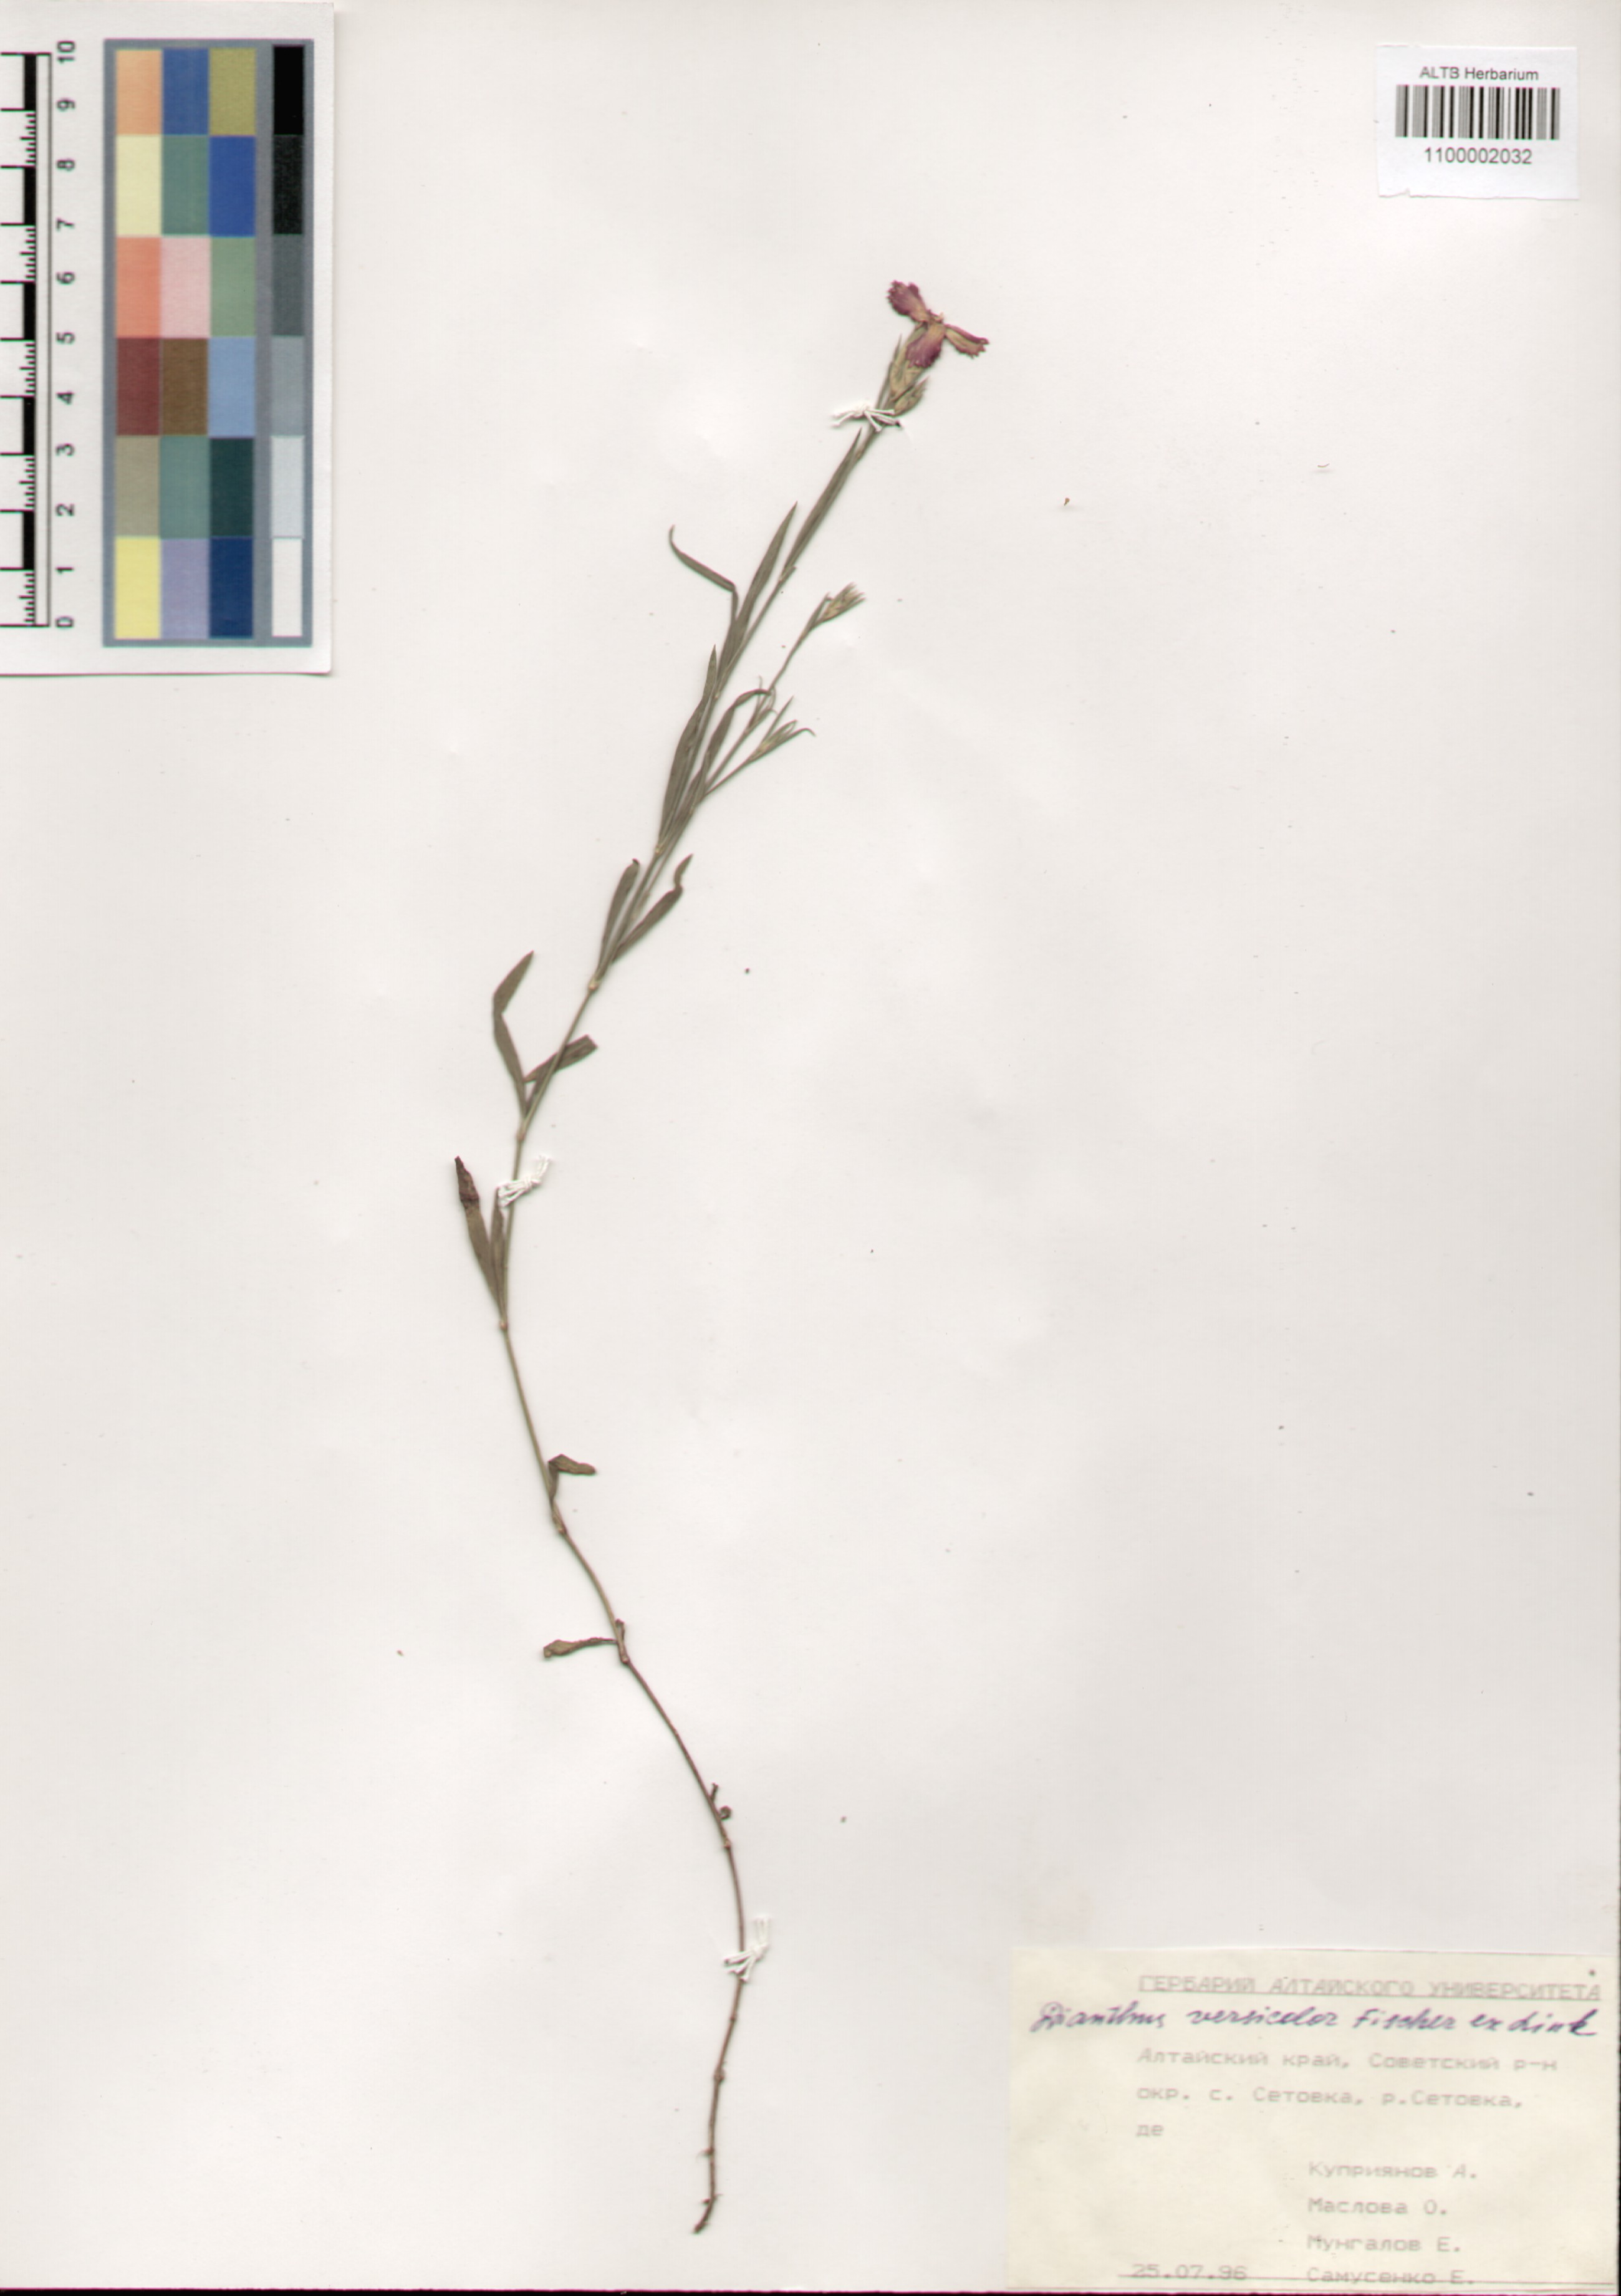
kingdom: Plantae
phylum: Tracheophyta
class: Magnoliopsida
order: Caryophyllales
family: Caryophyllaceae
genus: Dianthus
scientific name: Dianthus chinensis
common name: Rainbow pink
